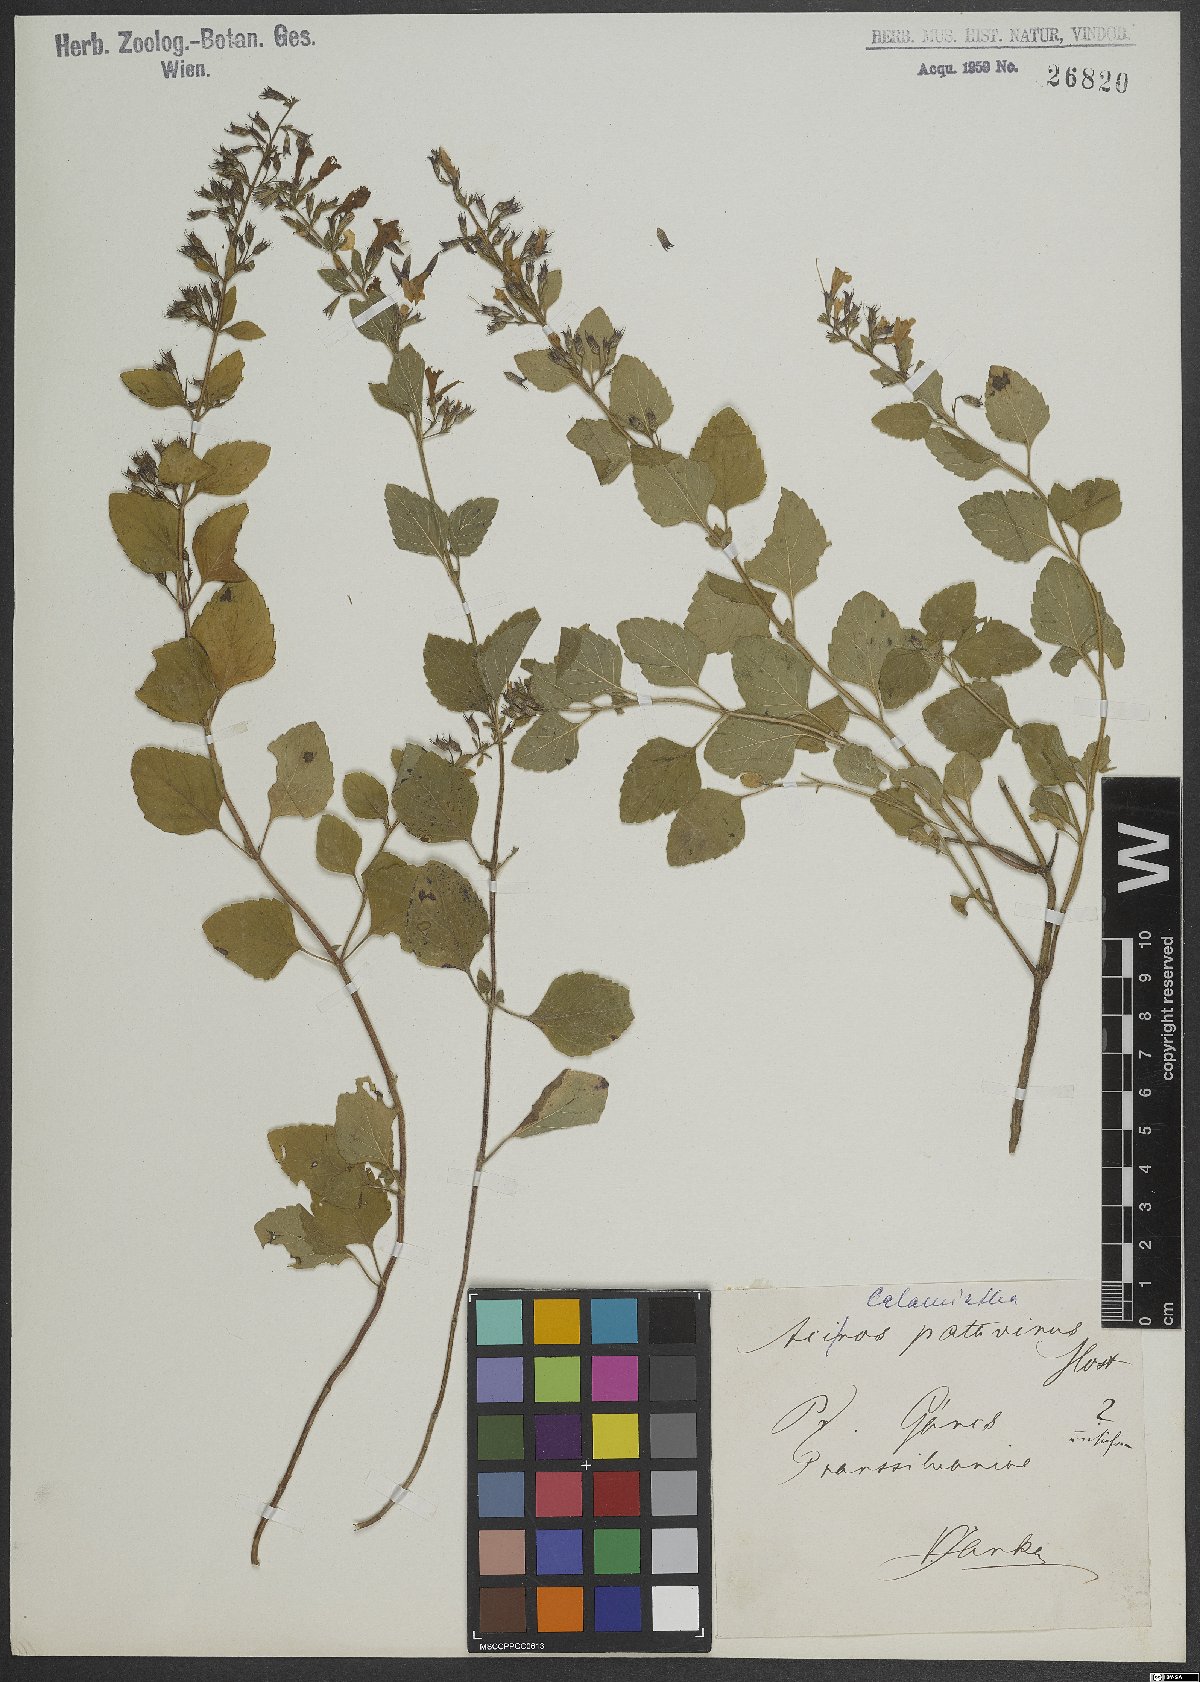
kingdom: Plantae
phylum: Tracheophyta
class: Magnoliopsida
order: Lamiales
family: Lamiaceae
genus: Calamintha
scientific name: Calamintha
